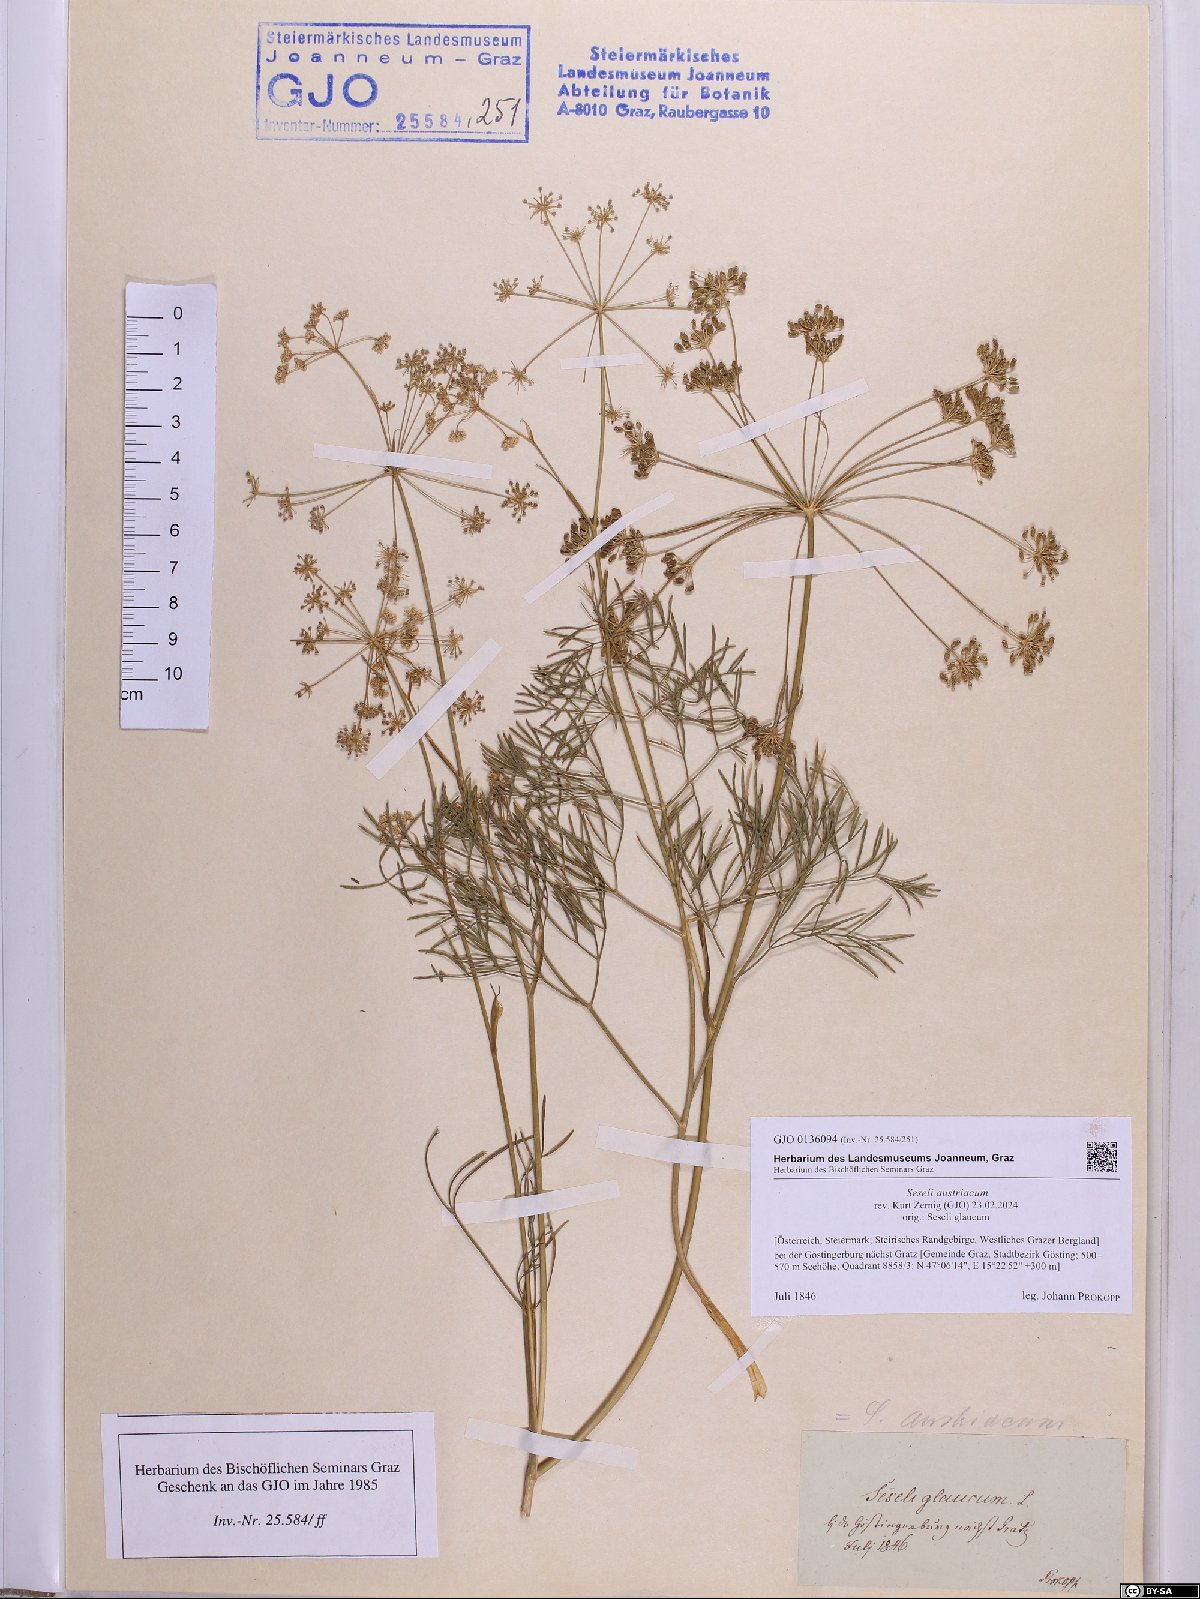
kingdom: Plantae
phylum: Tracheophyta
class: Magnoliopsida
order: Apiales
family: Apiaceae
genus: Seseli
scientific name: Seseli austriacum
